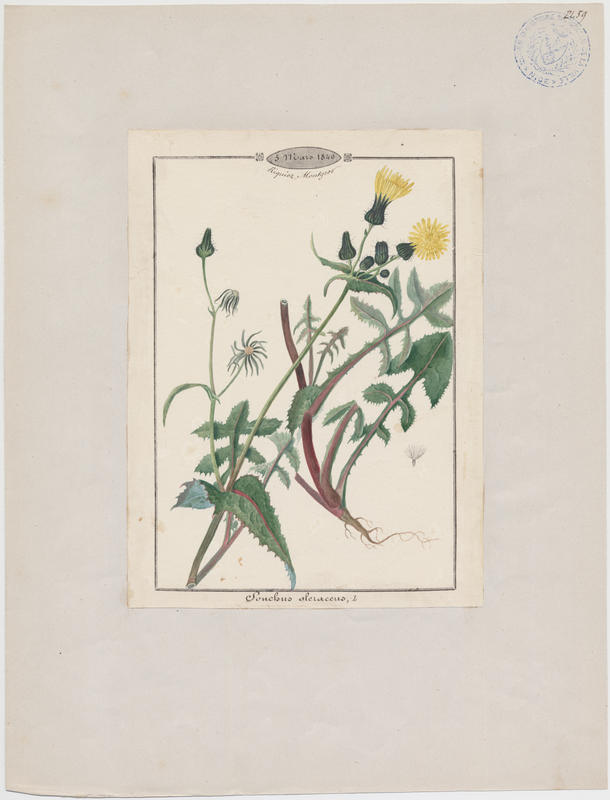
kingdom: Plantae
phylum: Tracheophyta
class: Magnoliopsida
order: Asterales
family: Asteraceae
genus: Sonchus
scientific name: Sonchus oleraceus
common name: Common sowthistle
